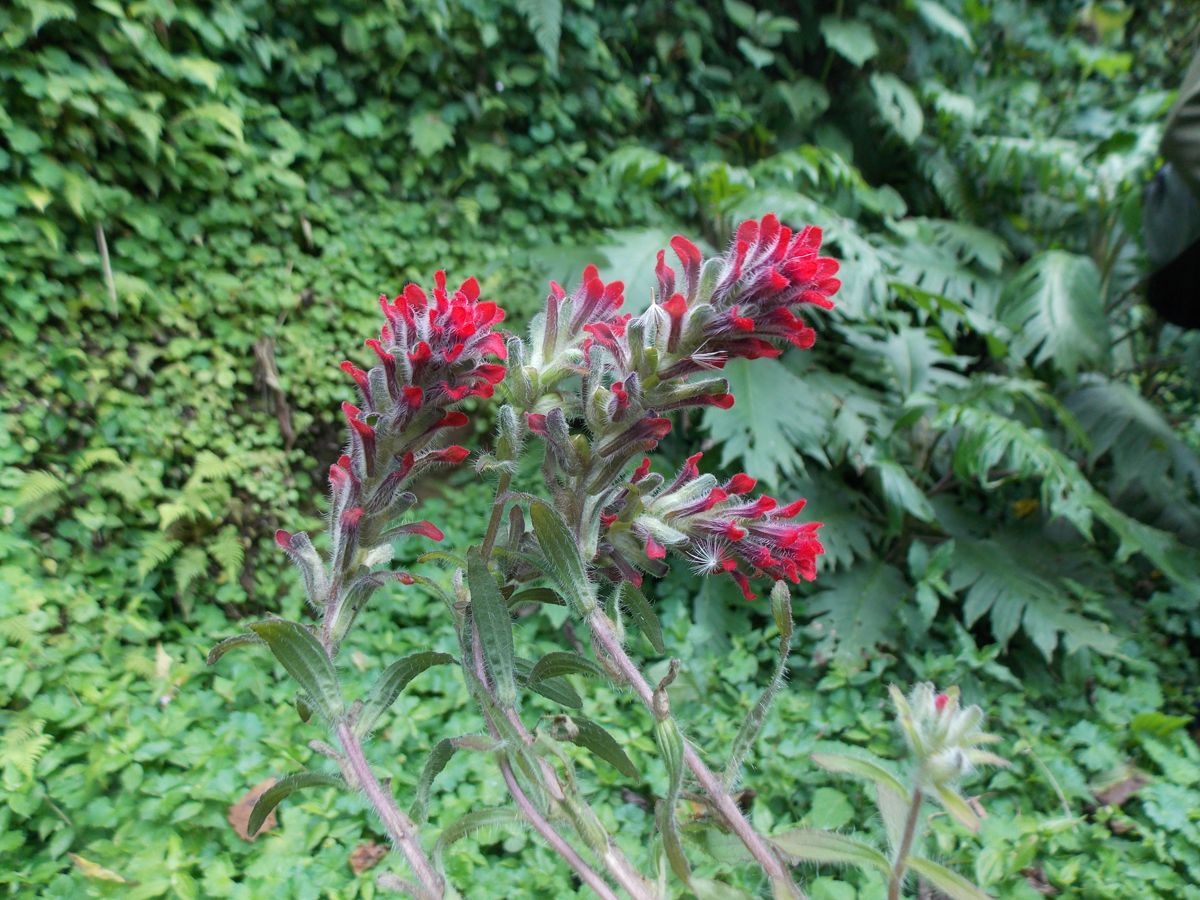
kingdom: Plantae
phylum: Tracheophyta
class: Magnoliopsida
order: Lamiales
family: Orobanchaceae
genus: Castilleja
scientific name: Castilleja arvensis
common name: Indian paintbrush
